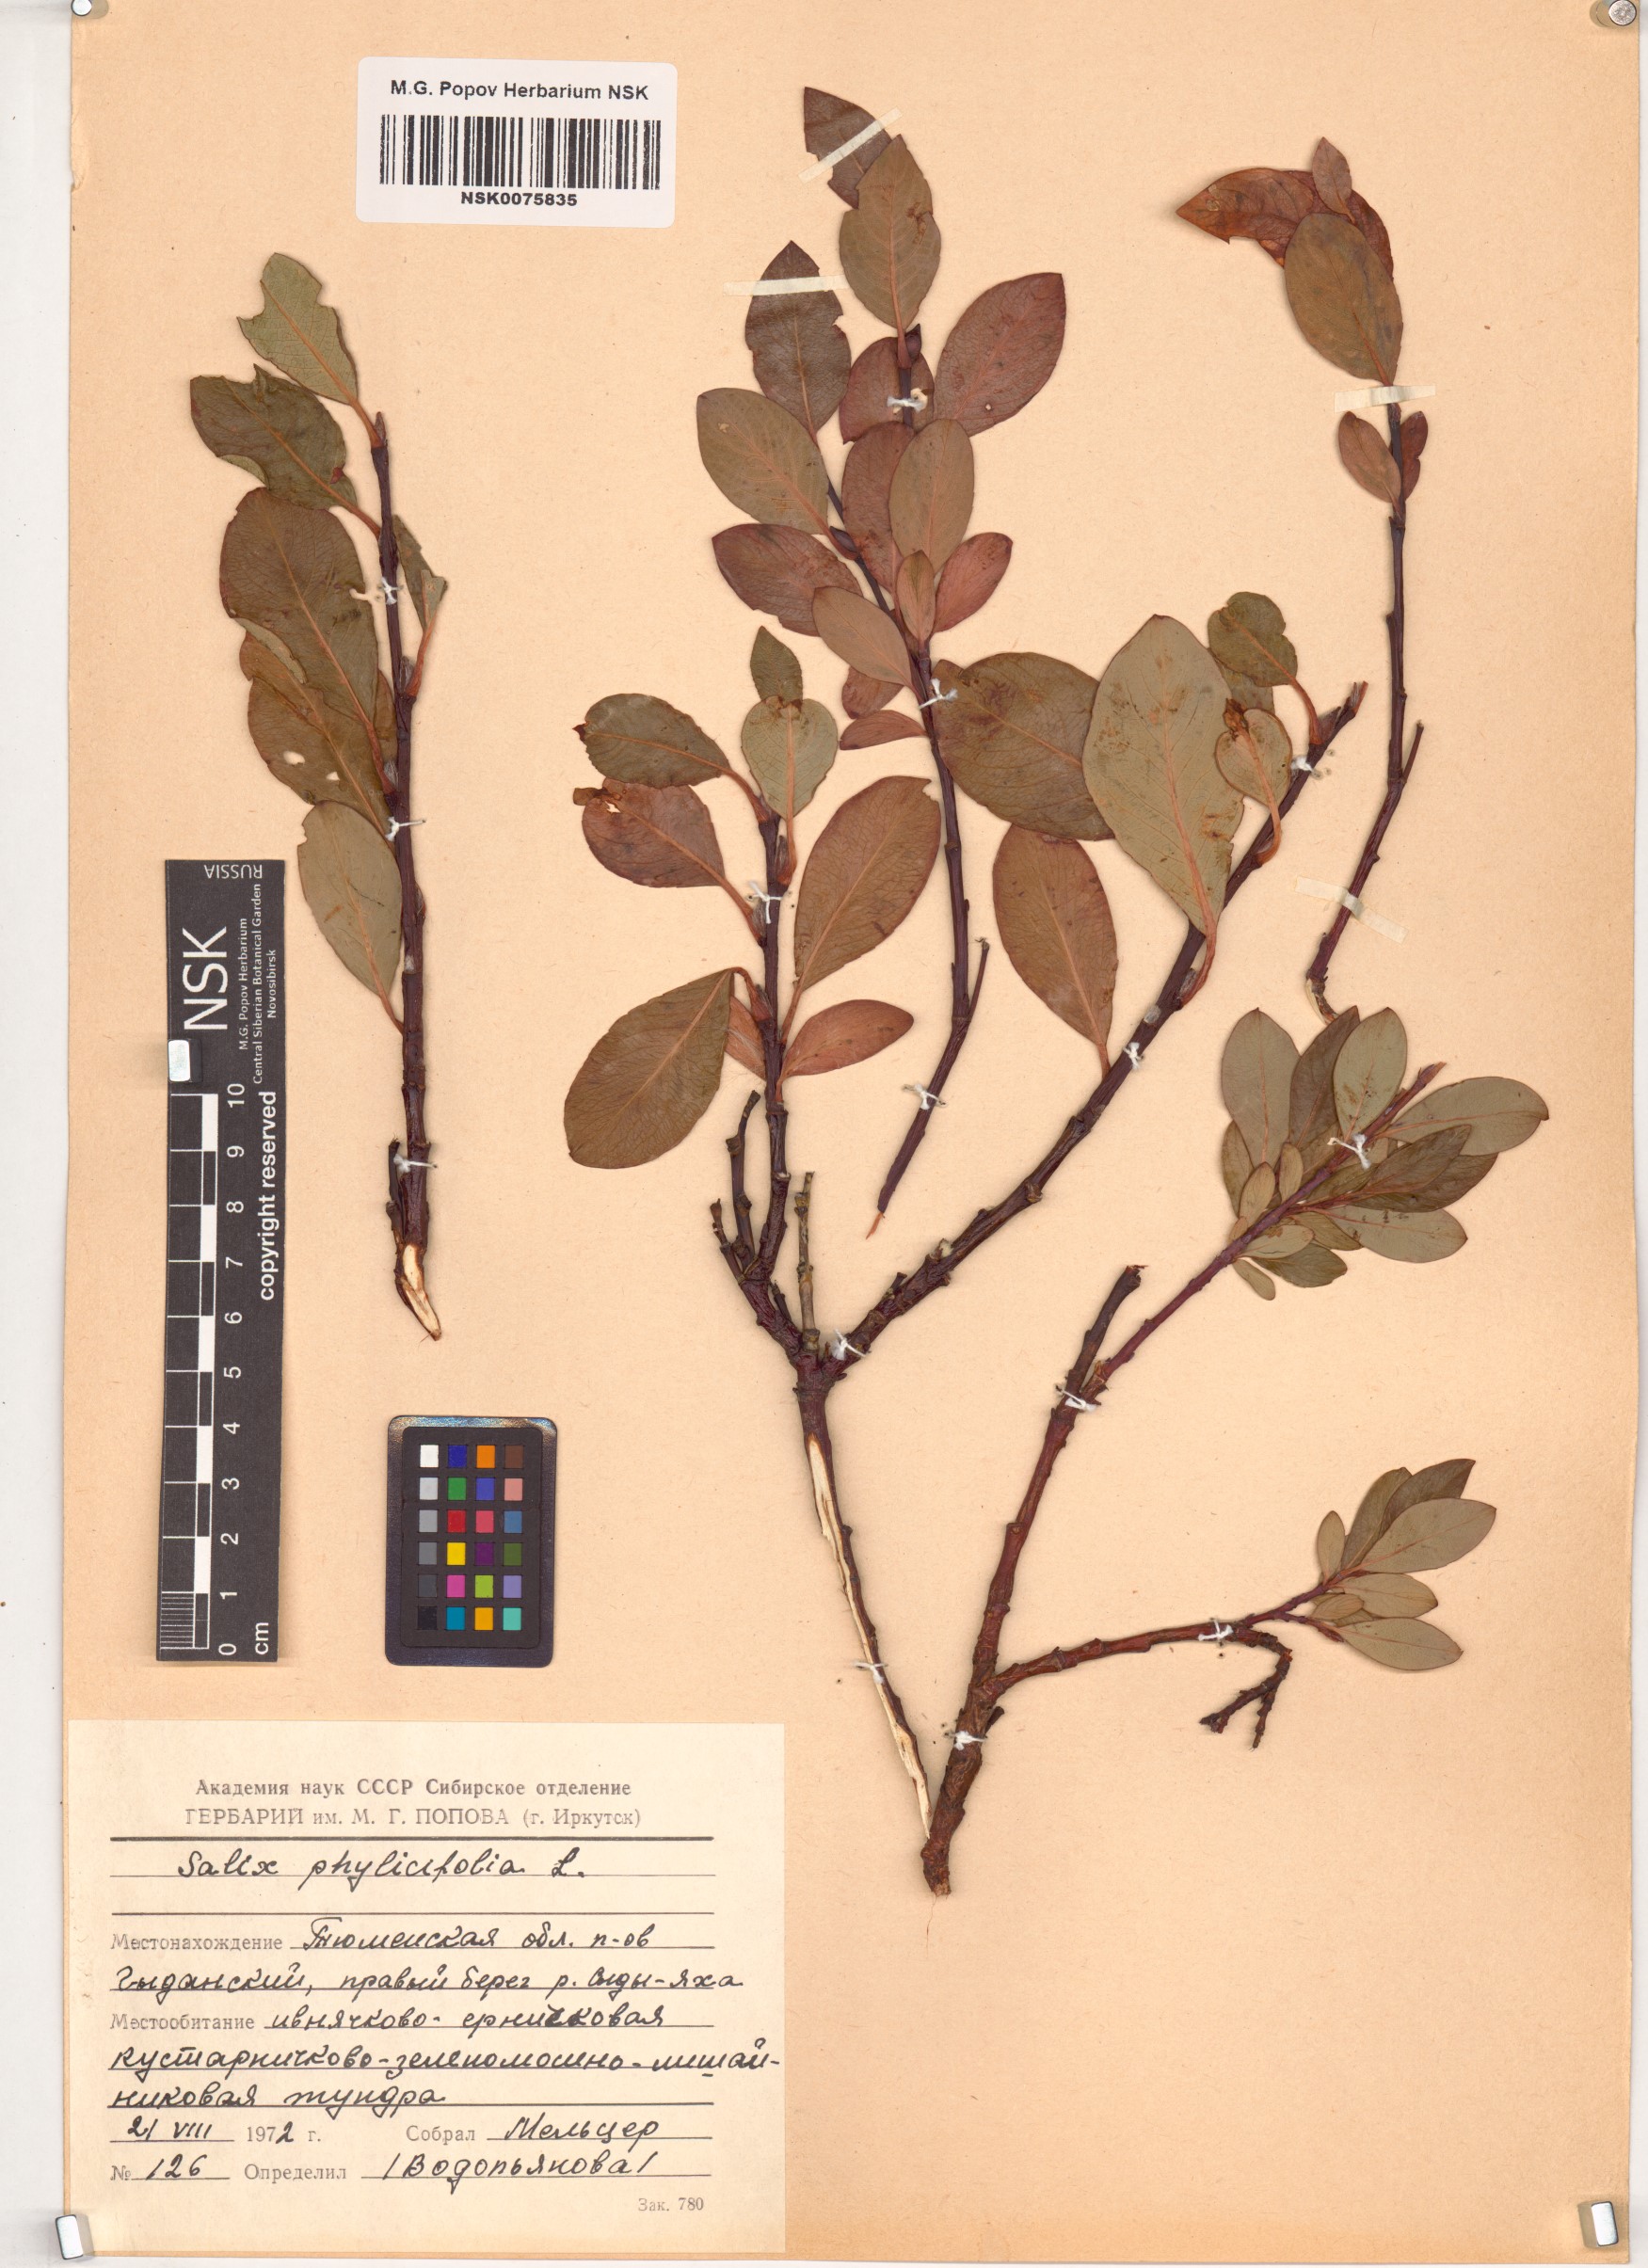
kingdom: Plantae
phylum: Tracheophyta
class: Magnoliopsida
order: Malpighiales
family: Salicaceae
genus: Salix
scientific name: Salix phylicifolia
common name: Tea-leaved willow
